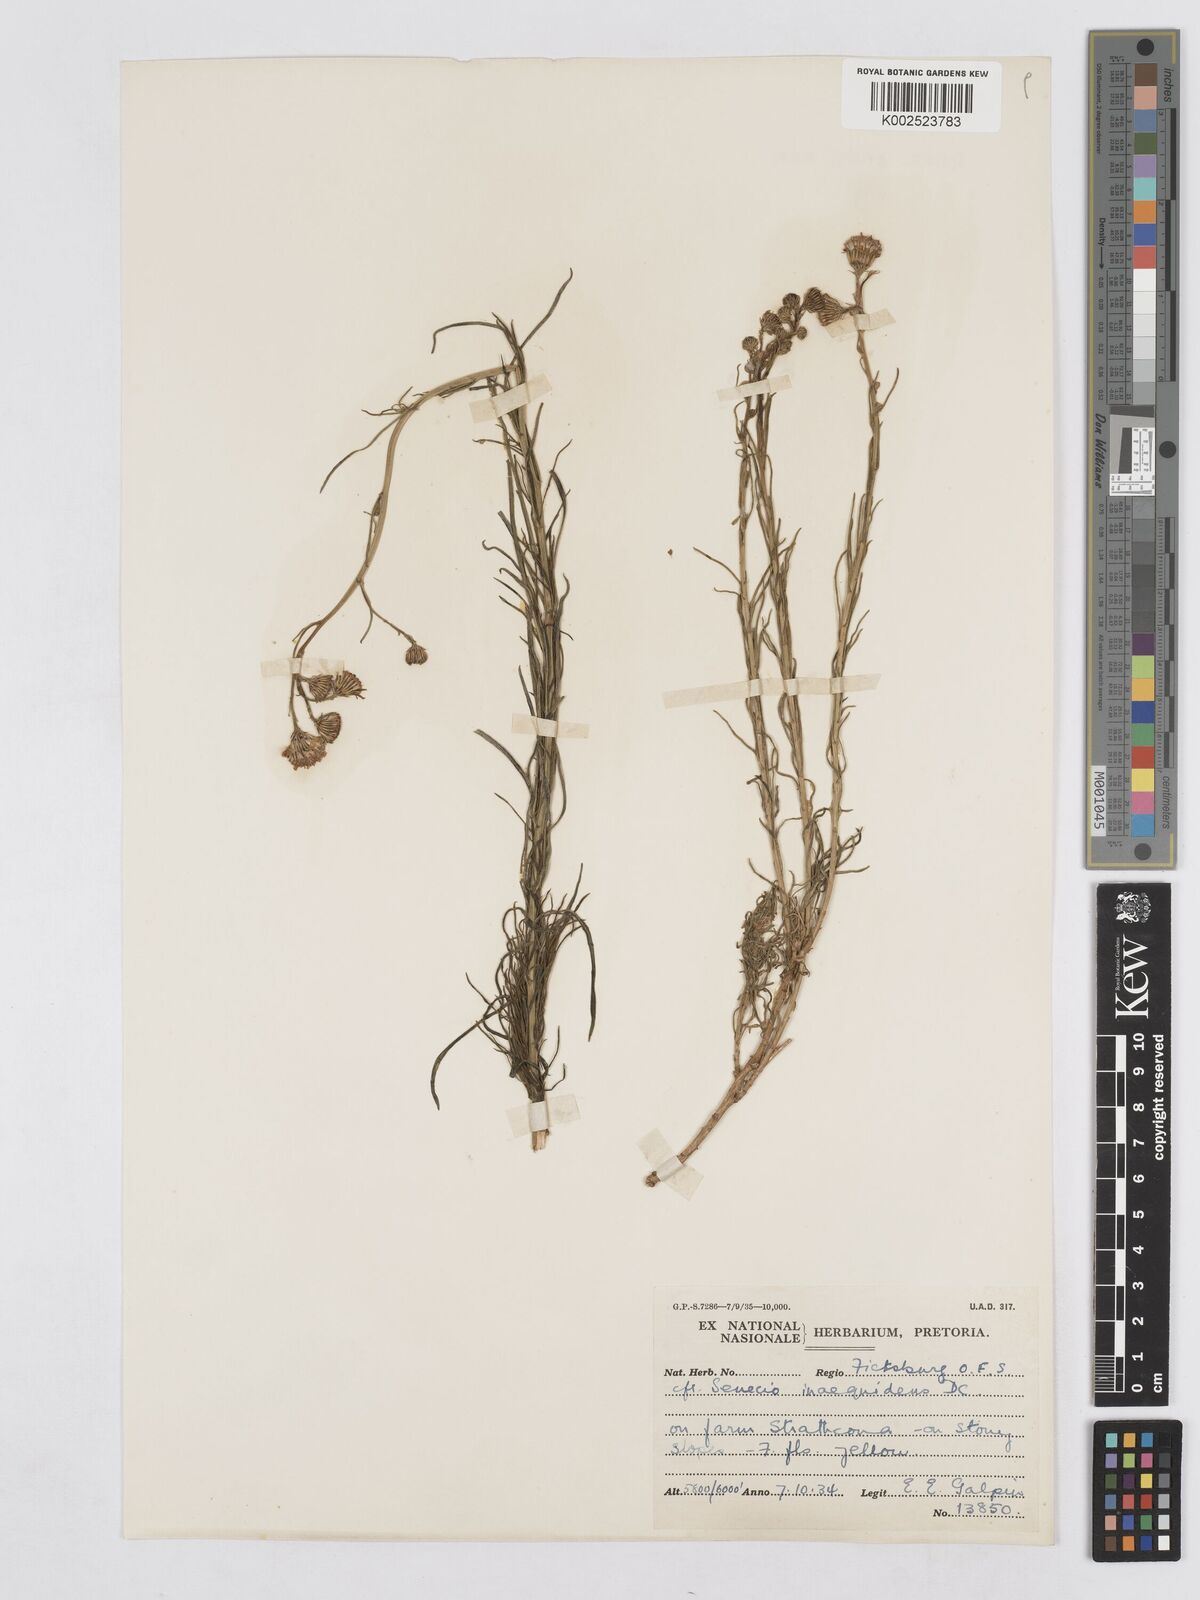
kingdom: Plantae
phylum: Tracheophyta
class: Magnoliopsida
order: Asterales
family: Asteraceae
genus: Senecio
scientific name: Senecio harveyanus
